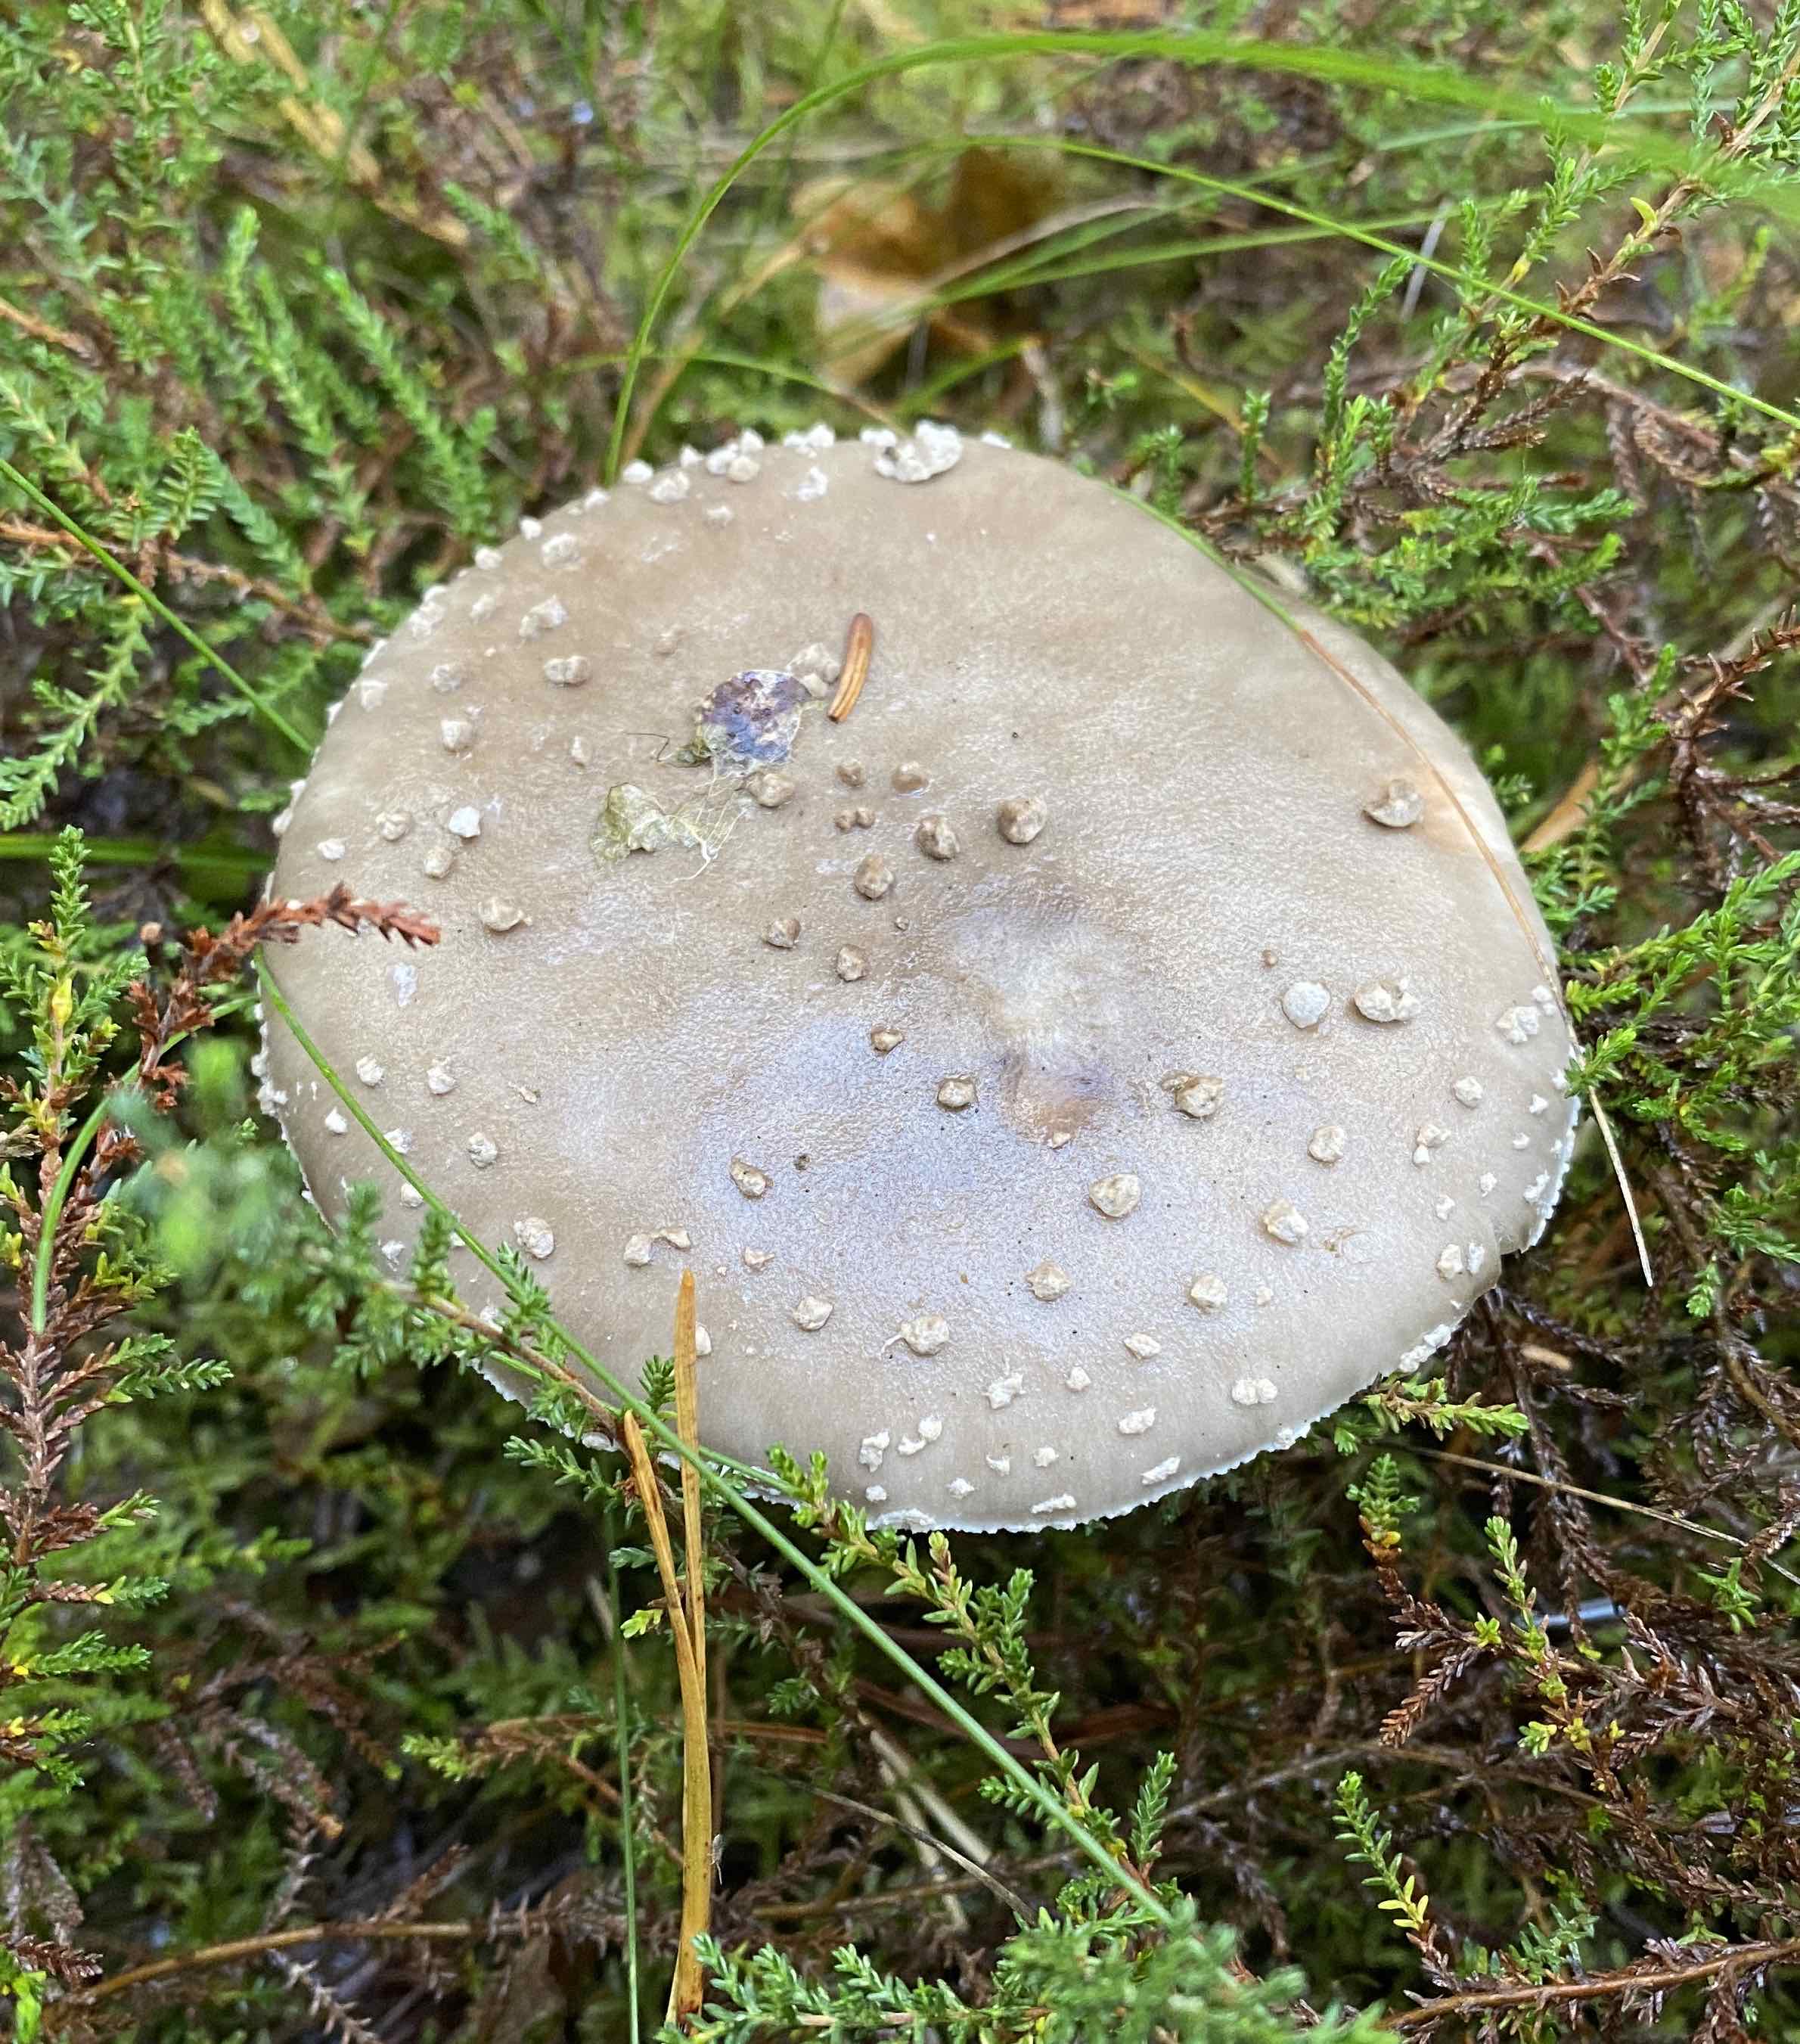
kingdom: Fungi
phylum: Basidiomycota
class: Agaricomycetes
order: Agaricales
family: Amanitaceae
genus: Amanita
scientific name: Amanita
